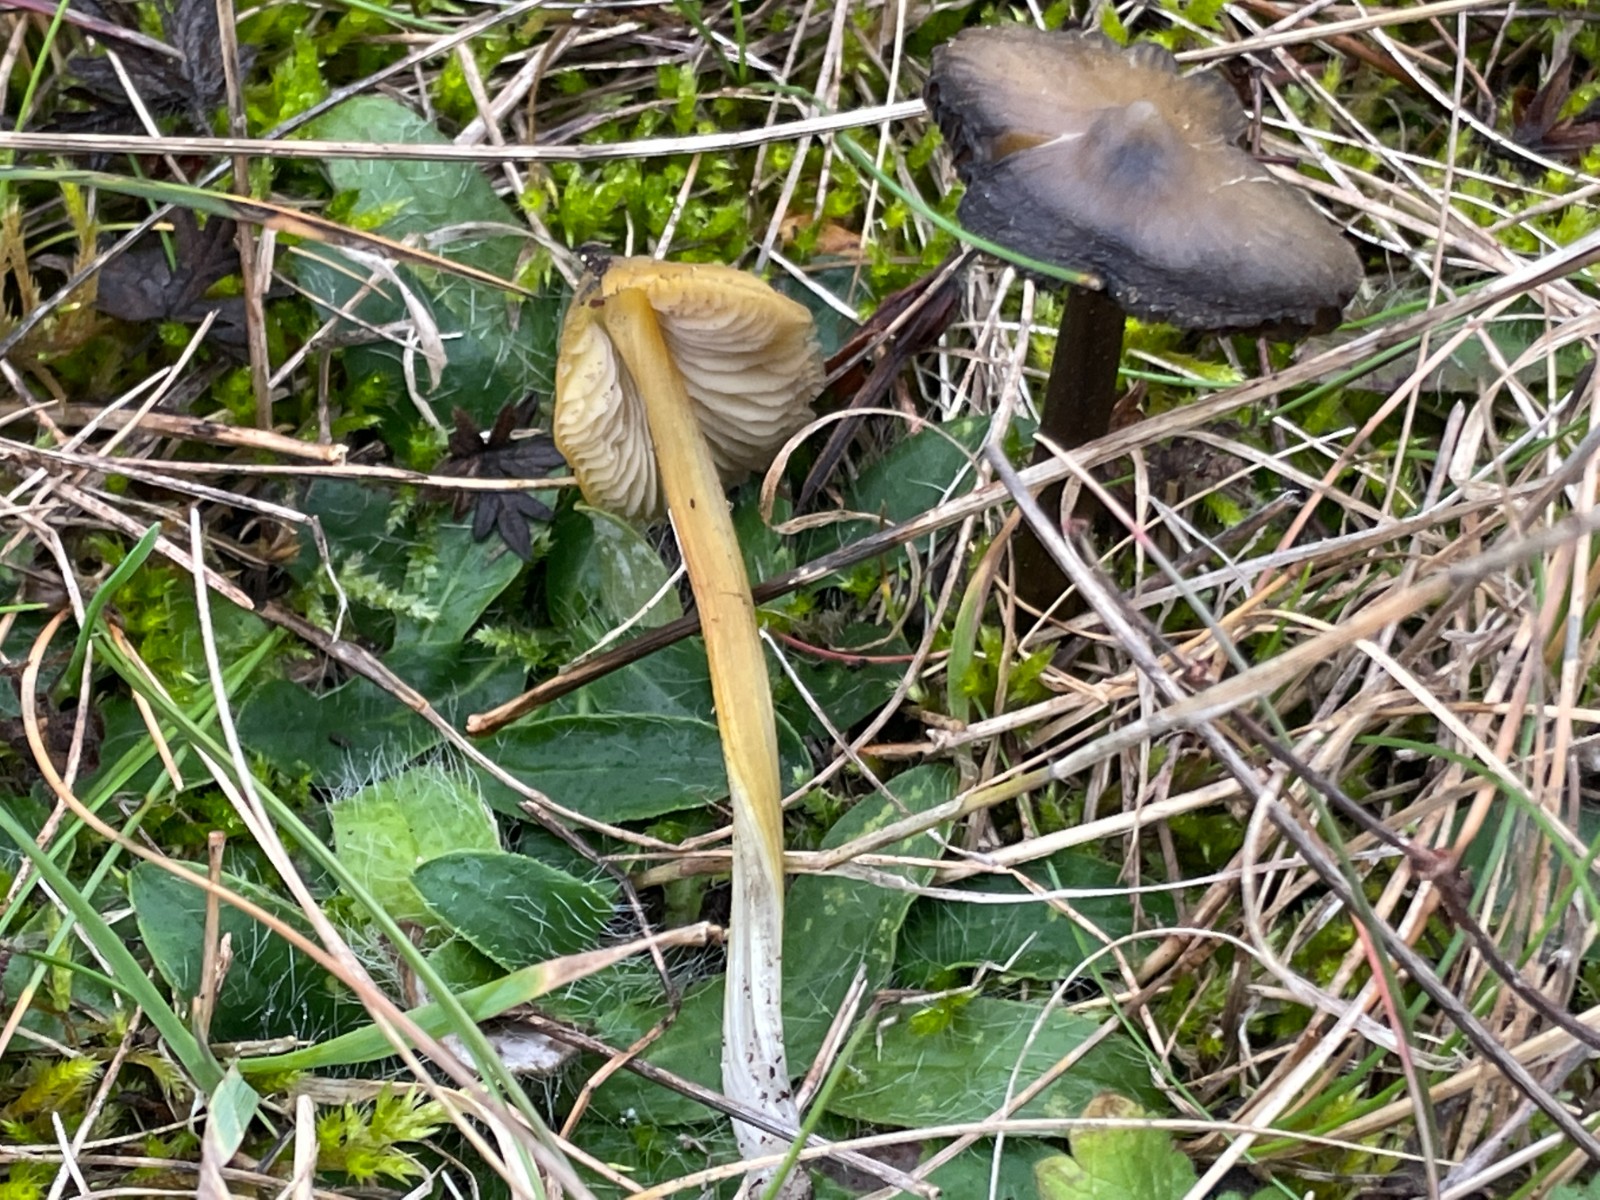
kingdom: Fungi
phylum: Basidiomycota
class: Agaricomycetes
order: Agaricales
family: Hygrophoraceae
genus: Hygrocybe
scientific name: Hygrocybe conica
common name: kegle-vokshat
